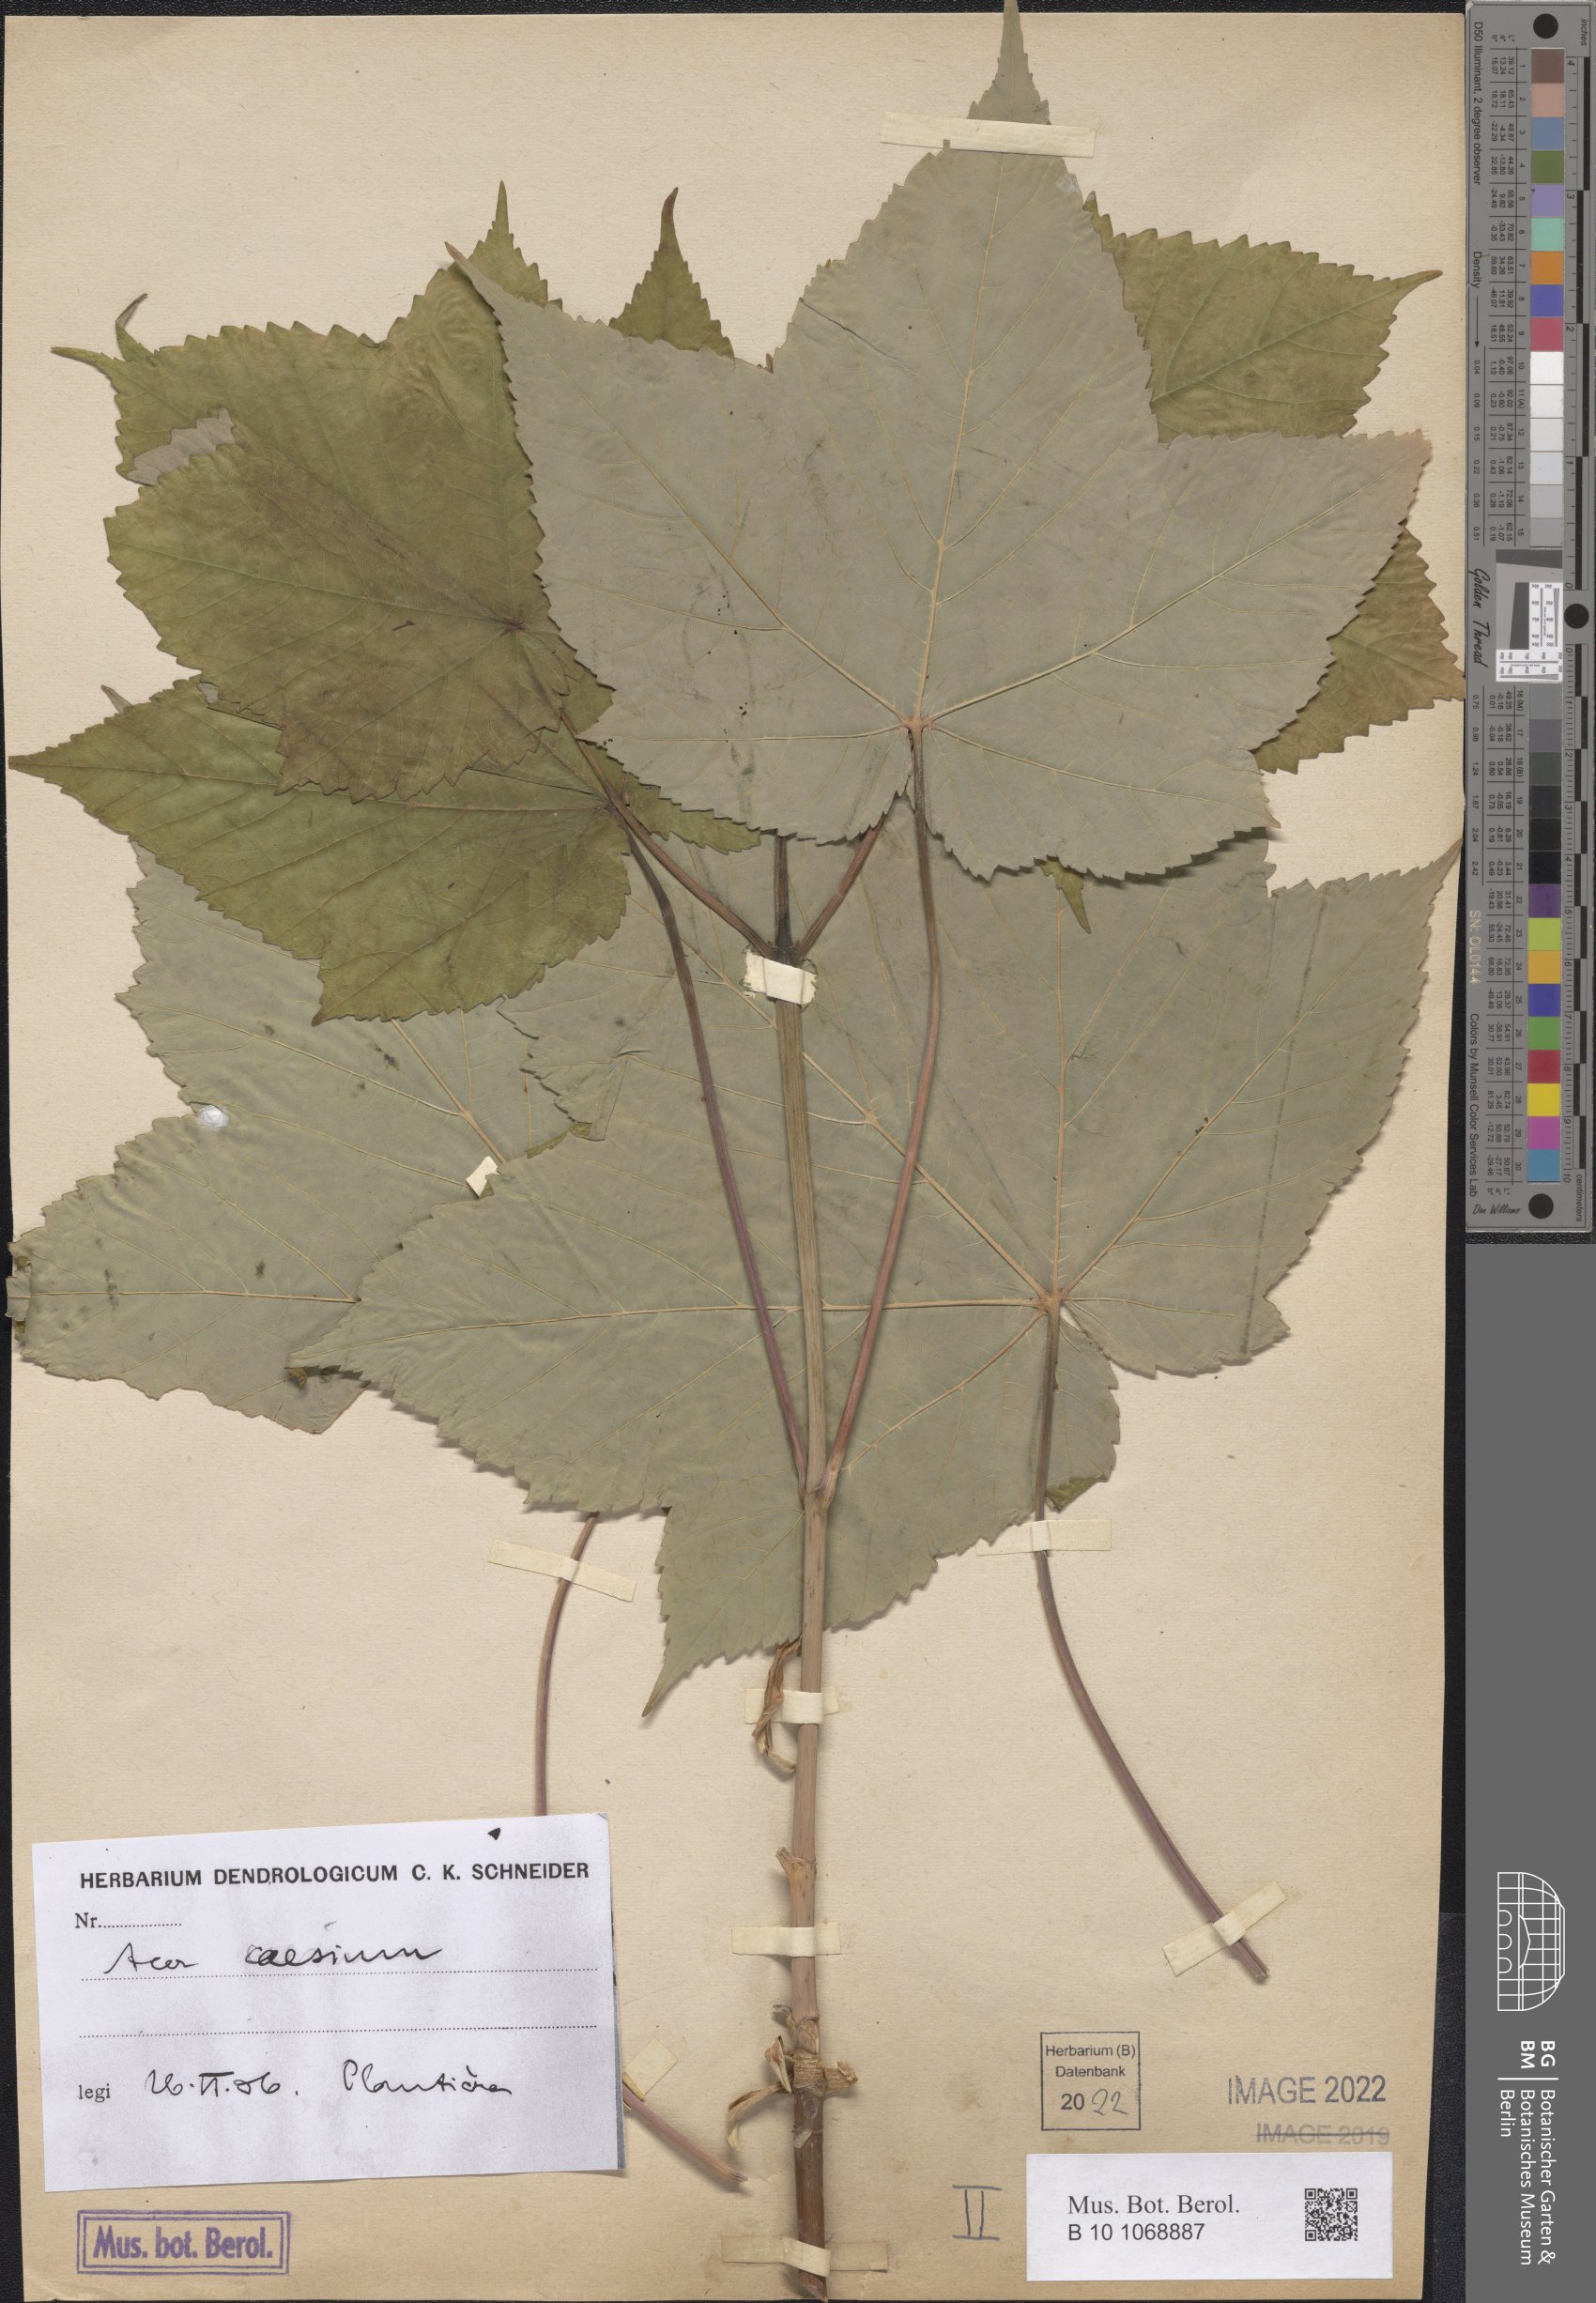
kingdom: Plantae
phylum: Tracheophyta
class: Magnoliopsida
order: Sapindales
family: Sapindaceae
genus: Acer
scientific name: Acer caesium
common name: Indian maple
